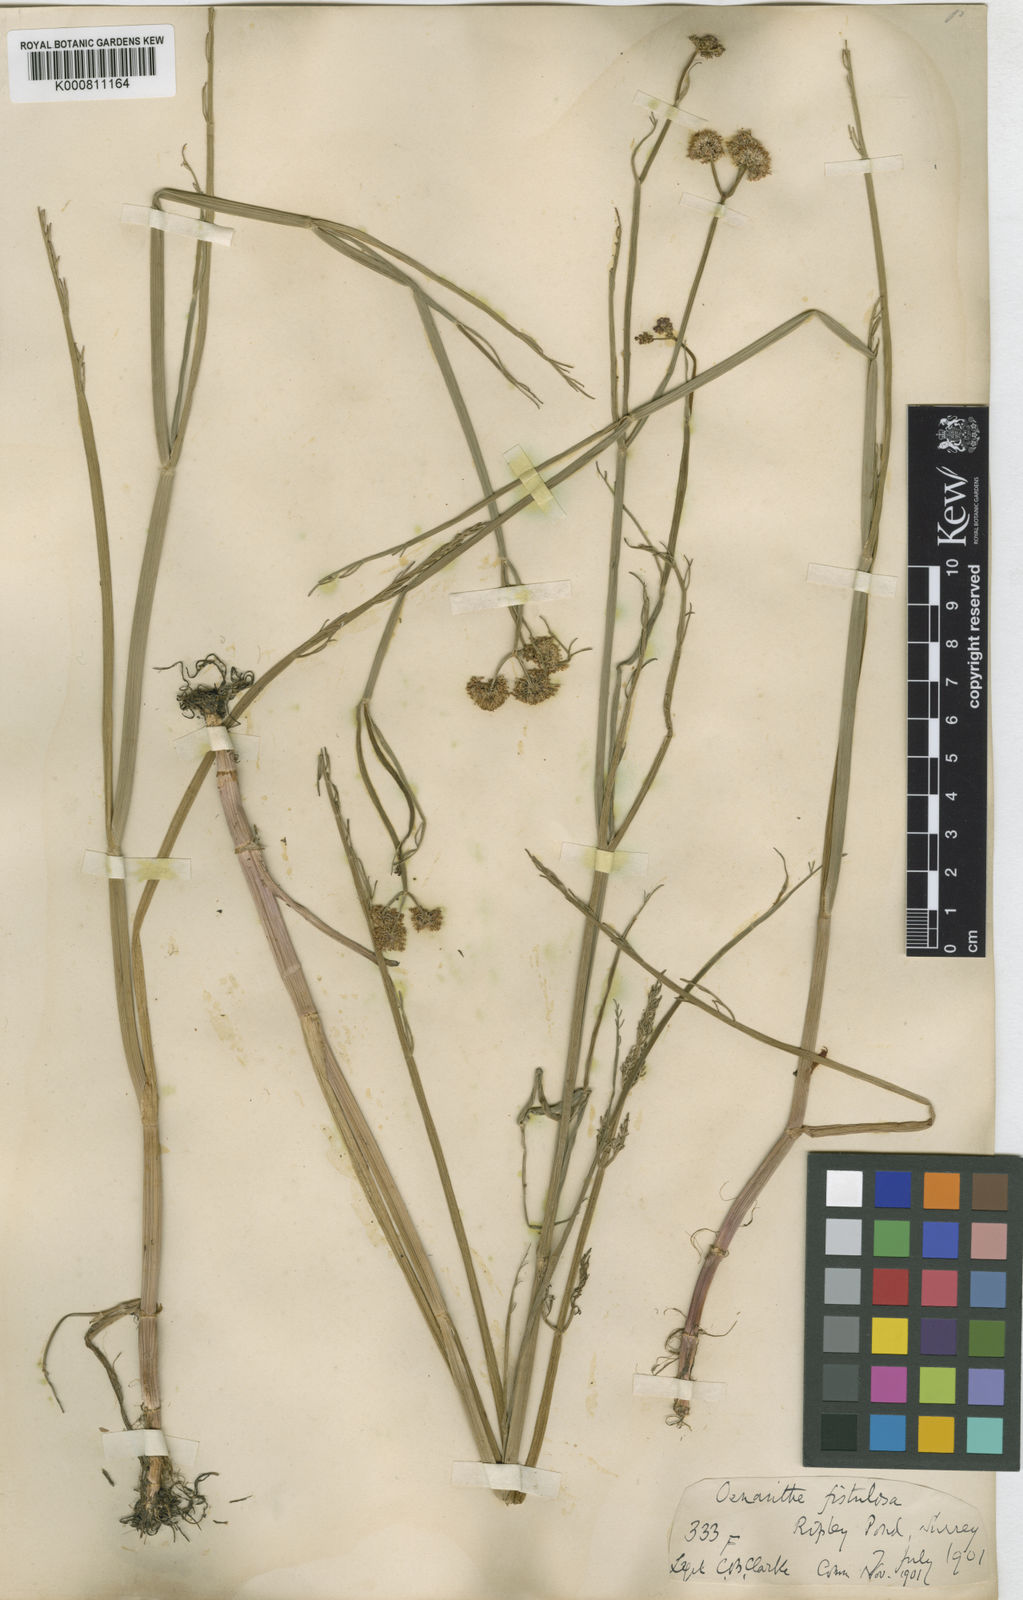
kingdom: Plantae
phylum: Tracheophyta
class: Magnoliopsida
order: Apiales
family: Apiaceae
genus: Oenanthe
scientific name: Oenanthe fistulosa
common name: Tubular water-dropwort
